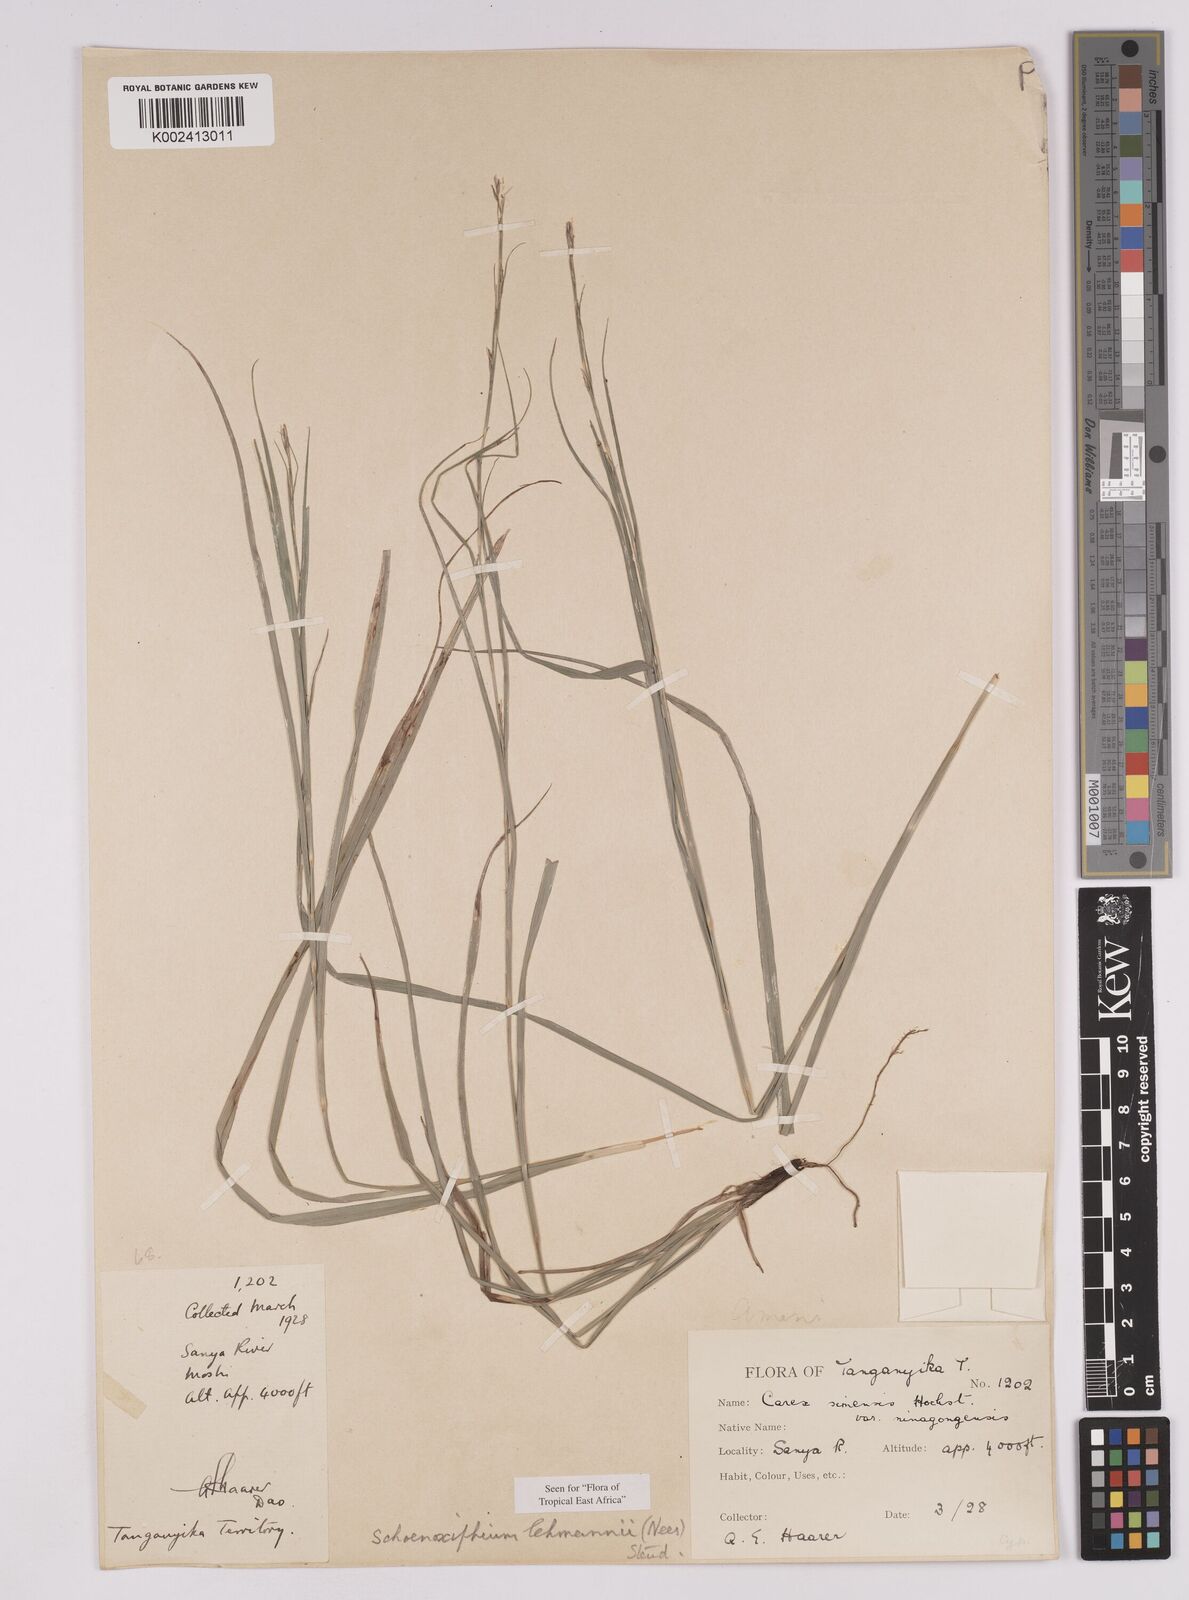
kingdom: Plantae
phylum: Tracheophyta
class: Liliopsida
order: Poales
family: Cyperaceae
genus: Carex
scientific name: Carex uhligii
